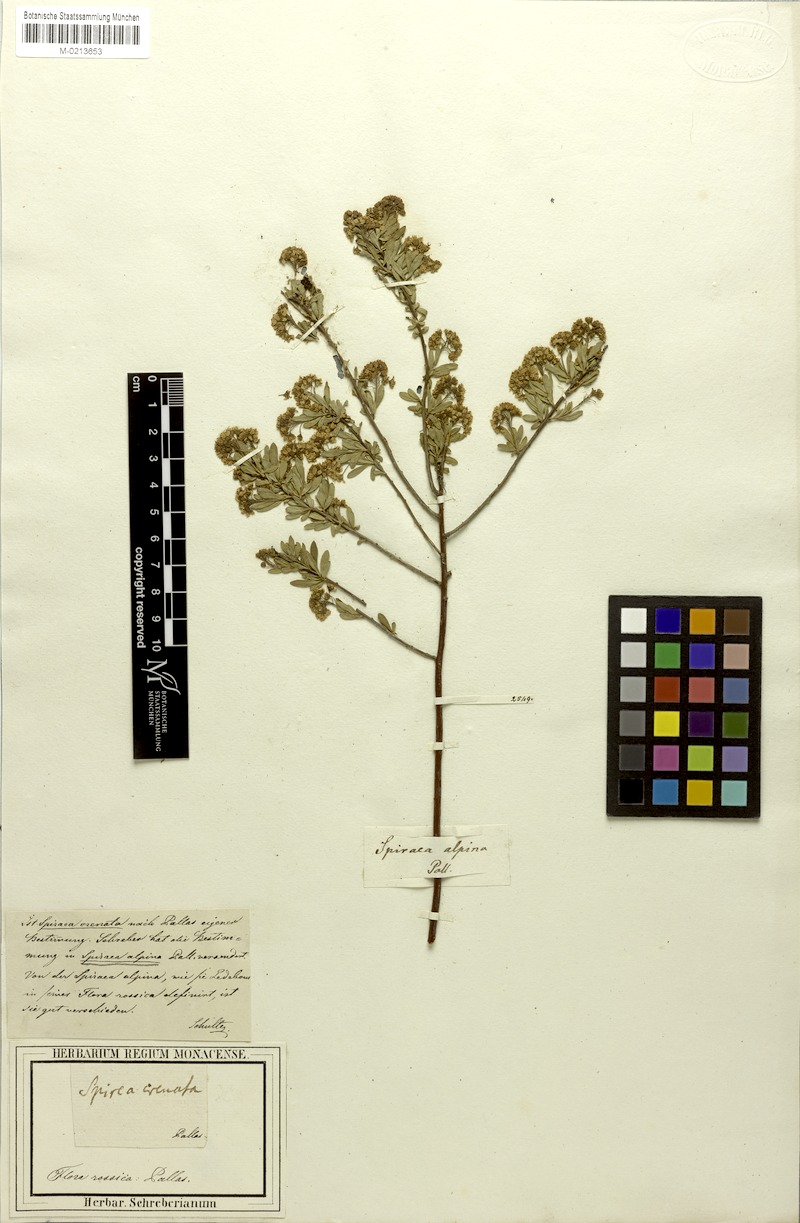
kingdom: Plantae
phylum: Tracheophyta
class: Magnoliopsida
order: Rosales
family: Rosaceae
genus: Spiraea
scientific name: Spiraea alpina
